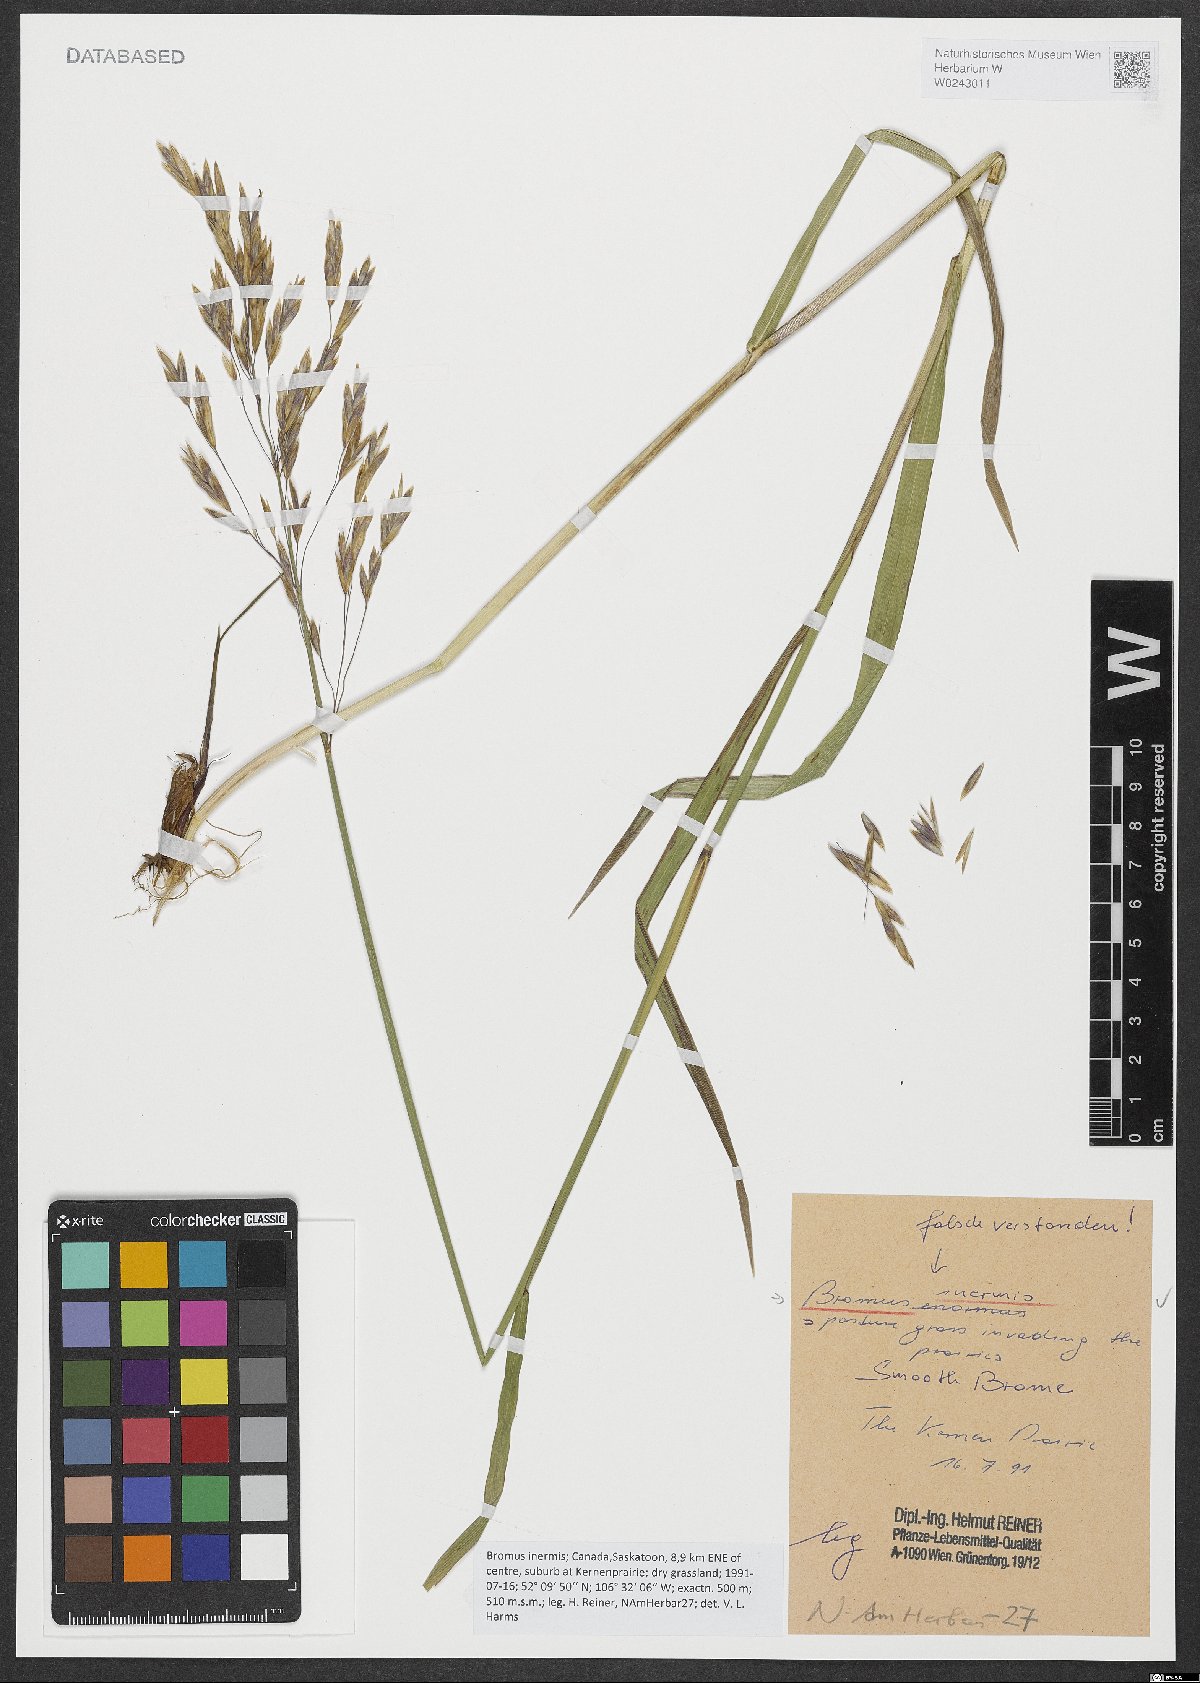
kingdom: Plantae
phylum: Tracheophyta
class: Liliopsida
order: Poales
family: Poaceae
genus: Bromus
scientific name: Bromus inermis
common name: Smooth brome
